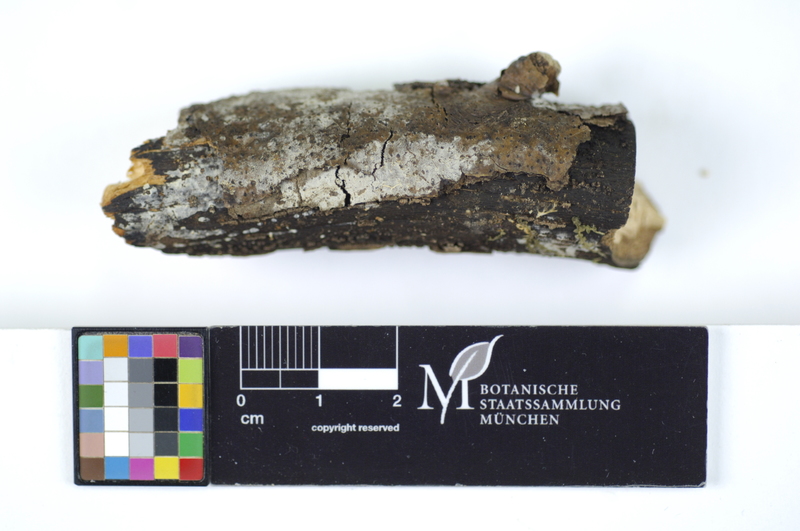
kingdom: Fungi
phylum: Basidiomycota
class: Agaricomycetes
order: Hymenochaetales
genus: Kurtia
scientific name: Kurtia macedonica
